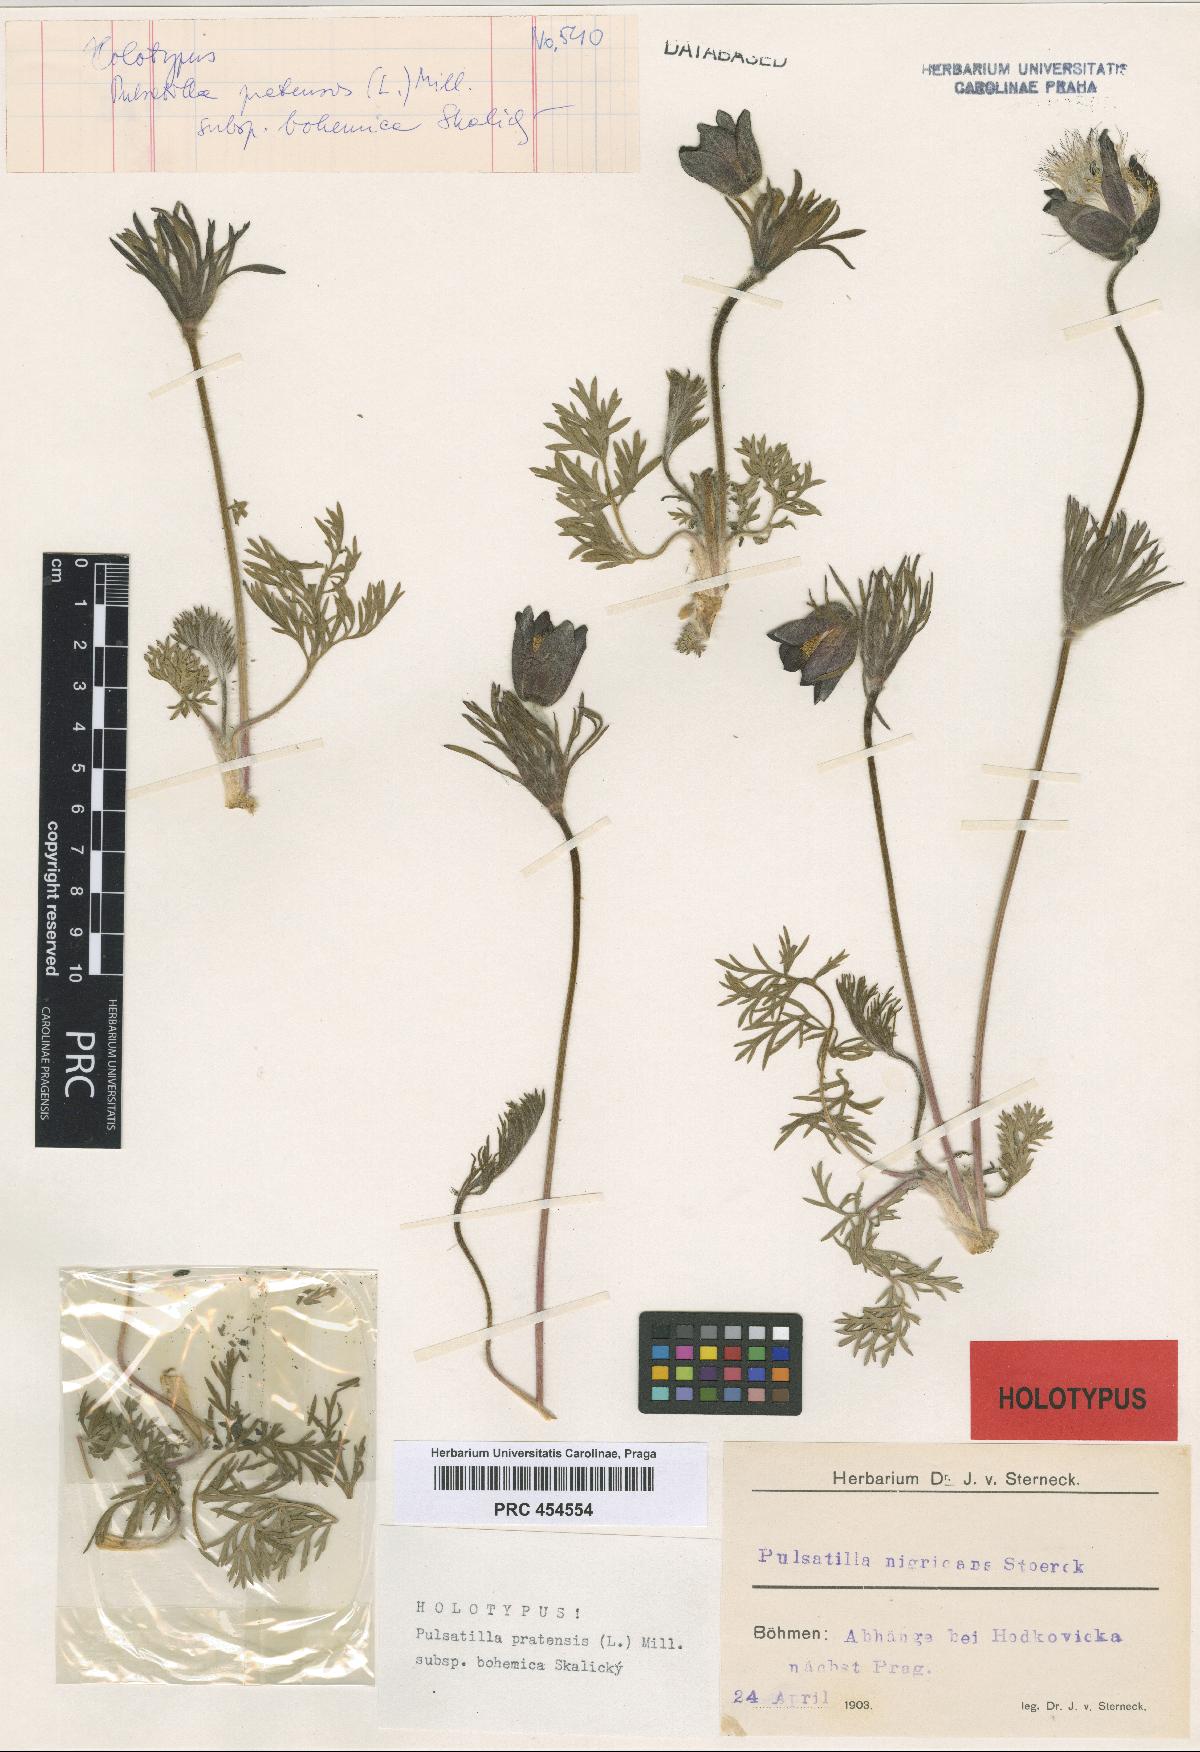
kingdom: Plantae
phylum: Tracheophyta
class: Magnoliopsida
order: Ranunculales
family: Ranunculaceae
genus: Pulsatilla
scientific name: Pulsatilla pratensis
